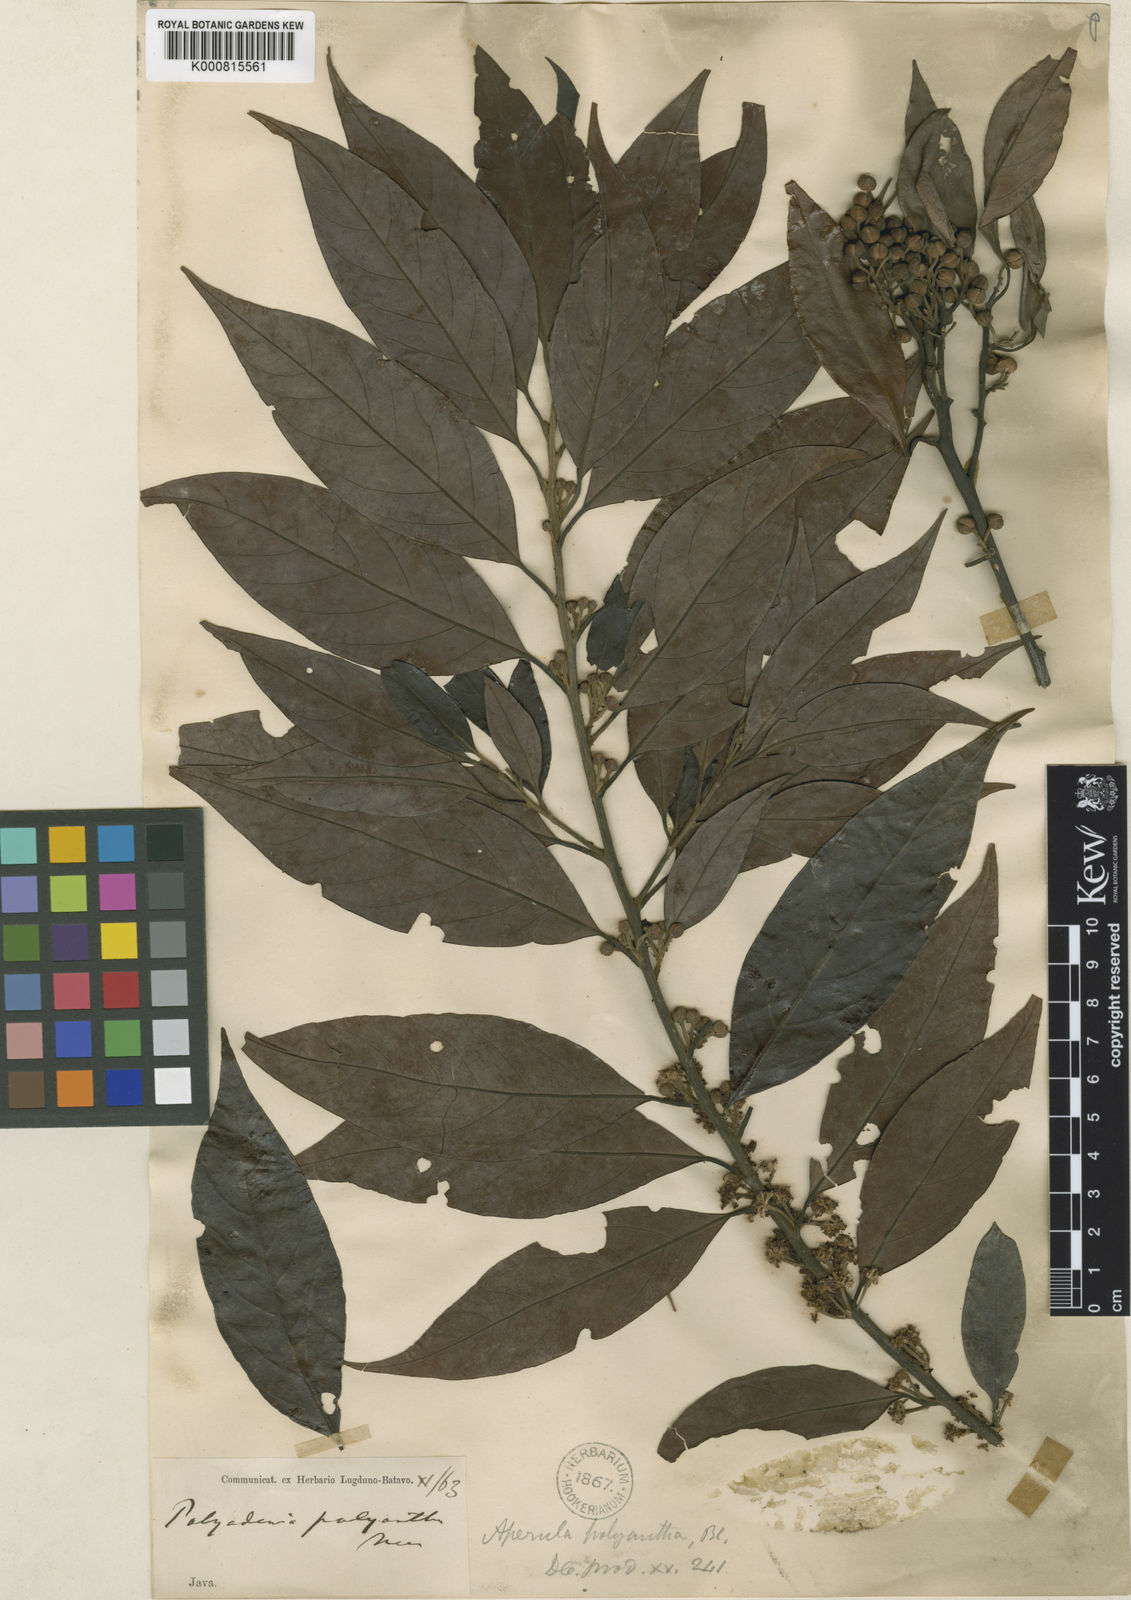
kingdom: Plantae
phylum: Tracheophyta
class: Magnoliopsida
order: Laurales
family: Lauraceae
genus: Lindera
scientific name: Lindera polyantha
